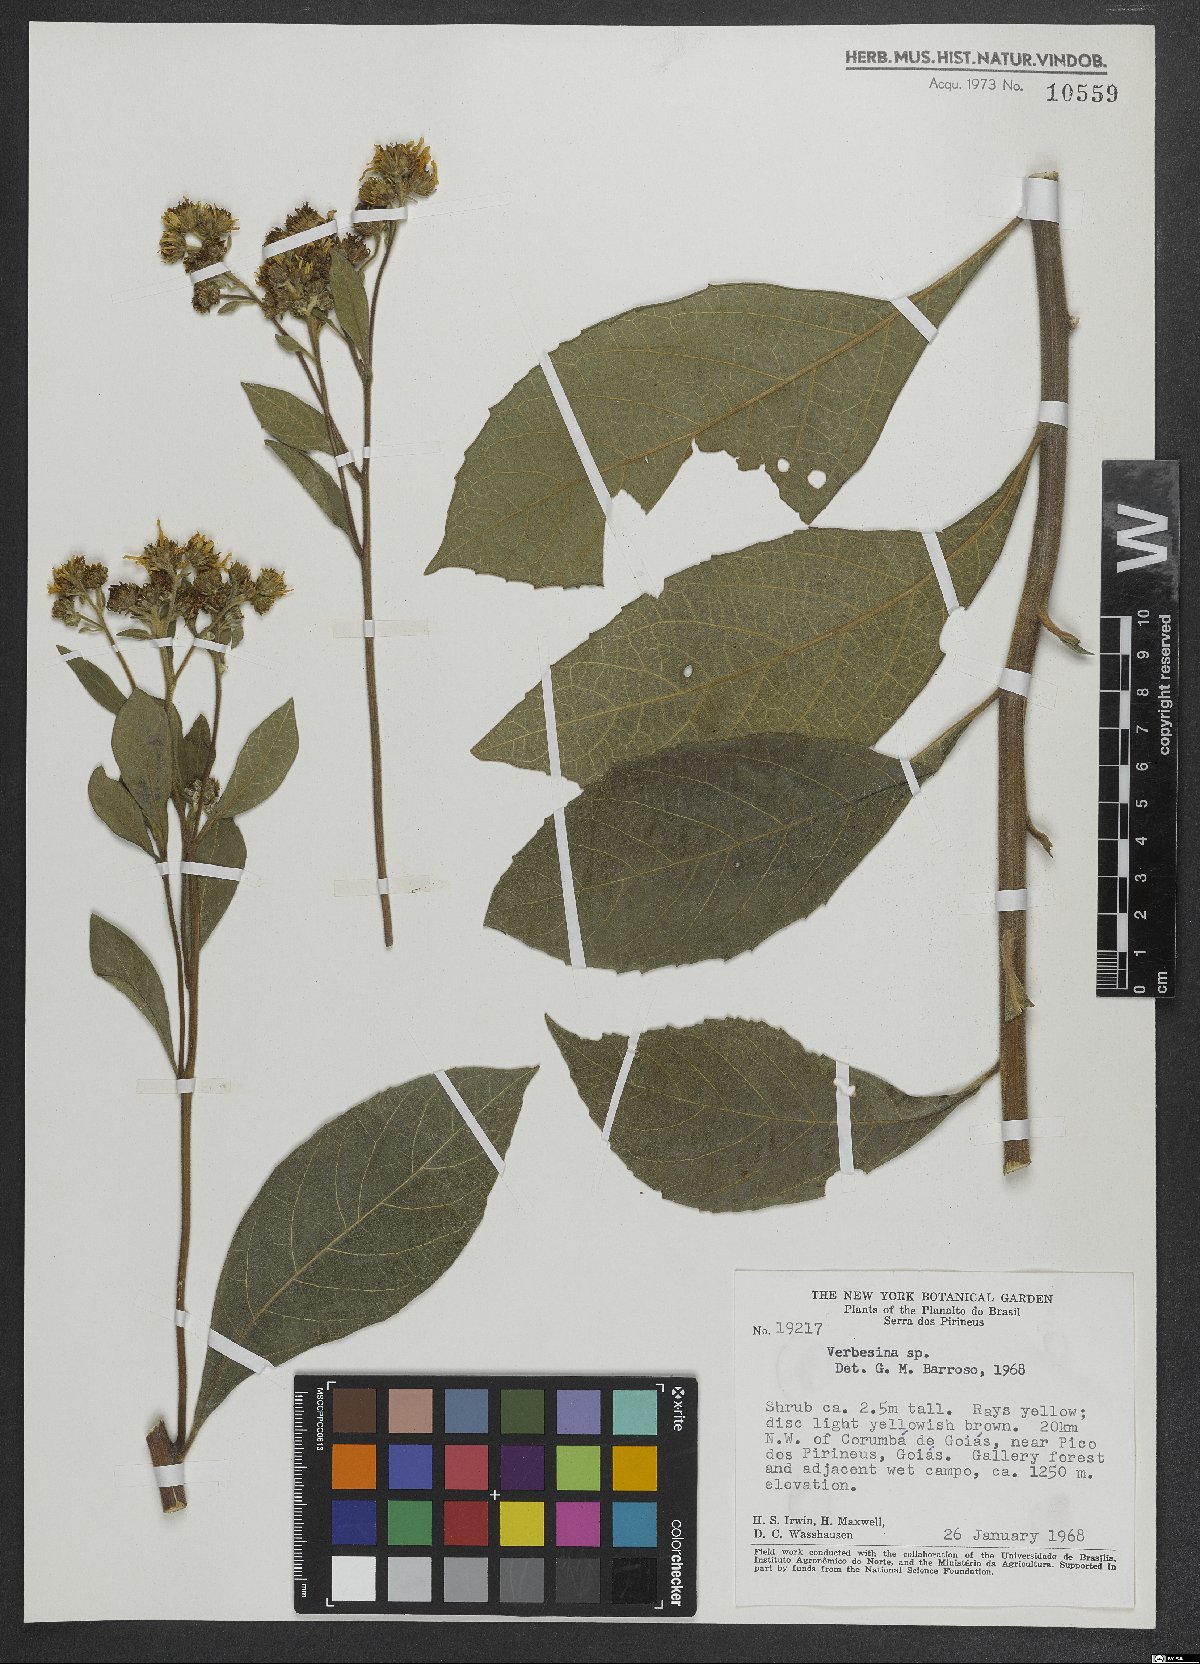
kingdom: Plantae
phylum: Tracheophyta
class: Magnoliopsida
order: Asterales
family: Asteraceae
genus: Verbesina
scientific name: Verbesina
